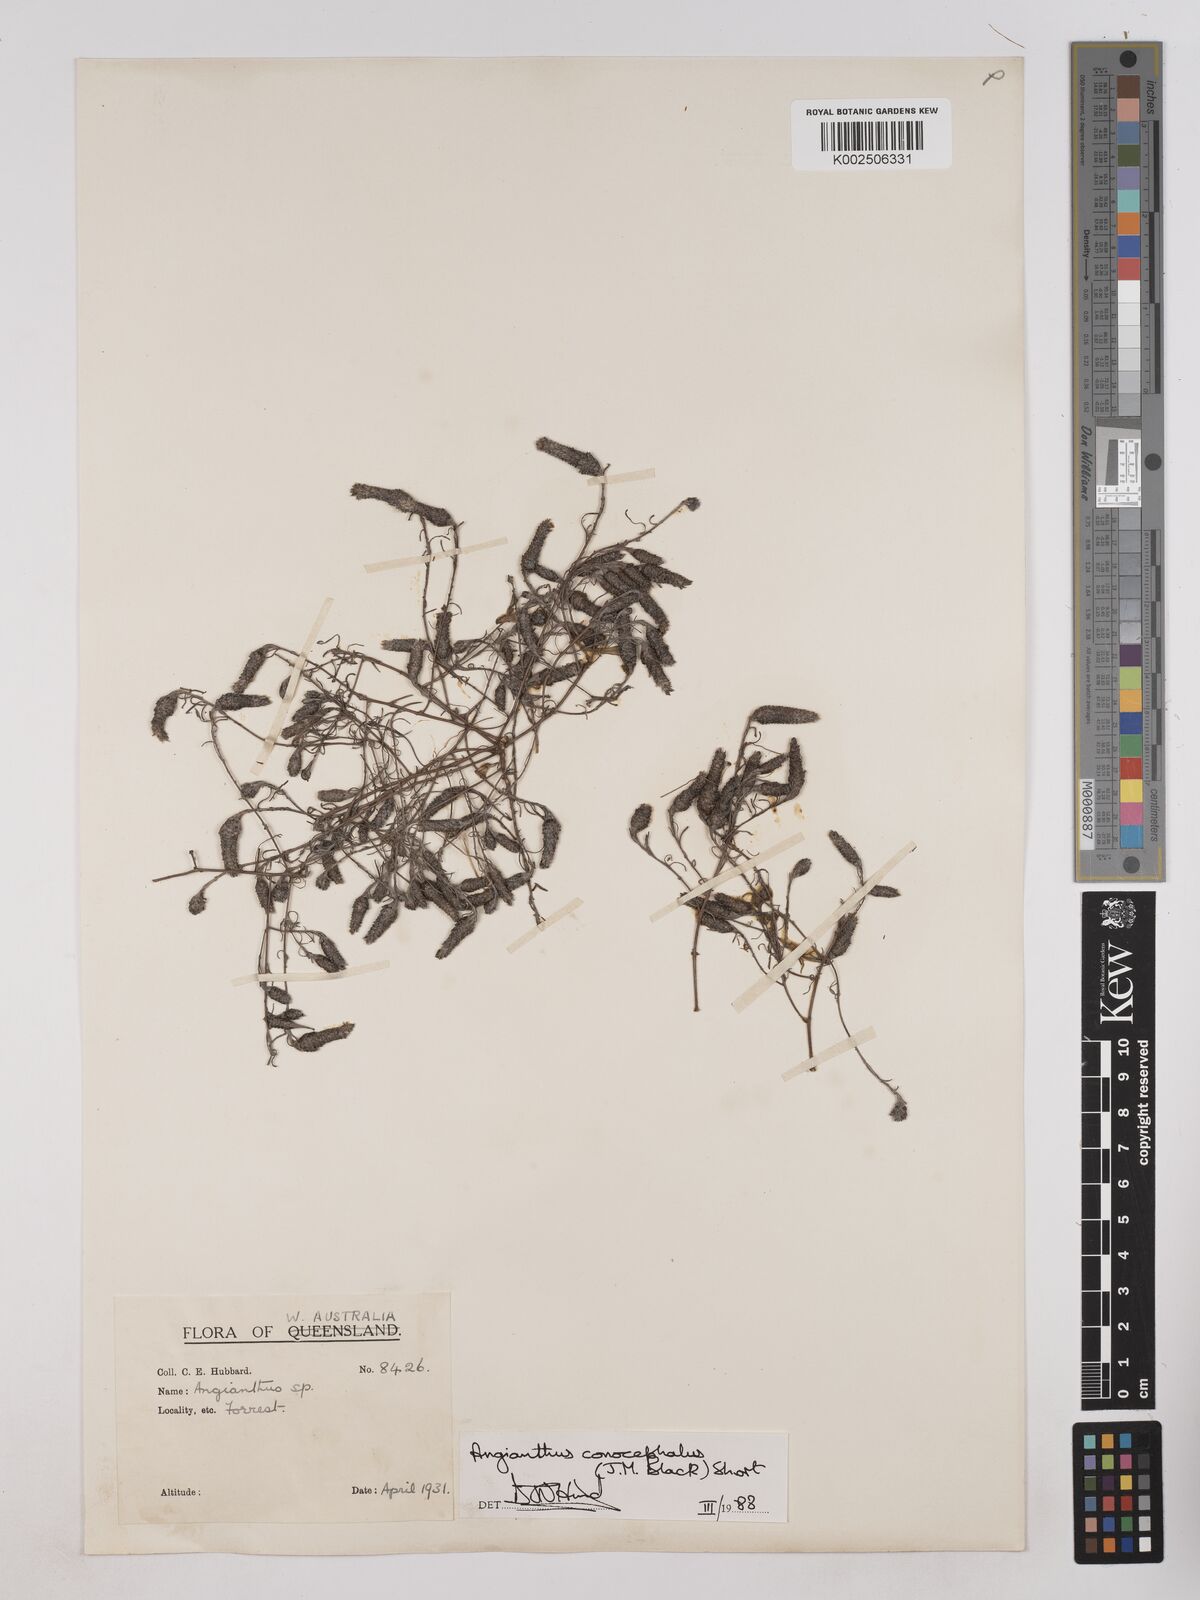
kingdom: Plantae
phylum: Tracheophyta
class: Magnoliopsida
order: Asterales
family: Asteraceae
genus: Angianthus
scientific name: Angianthus conocephalus
